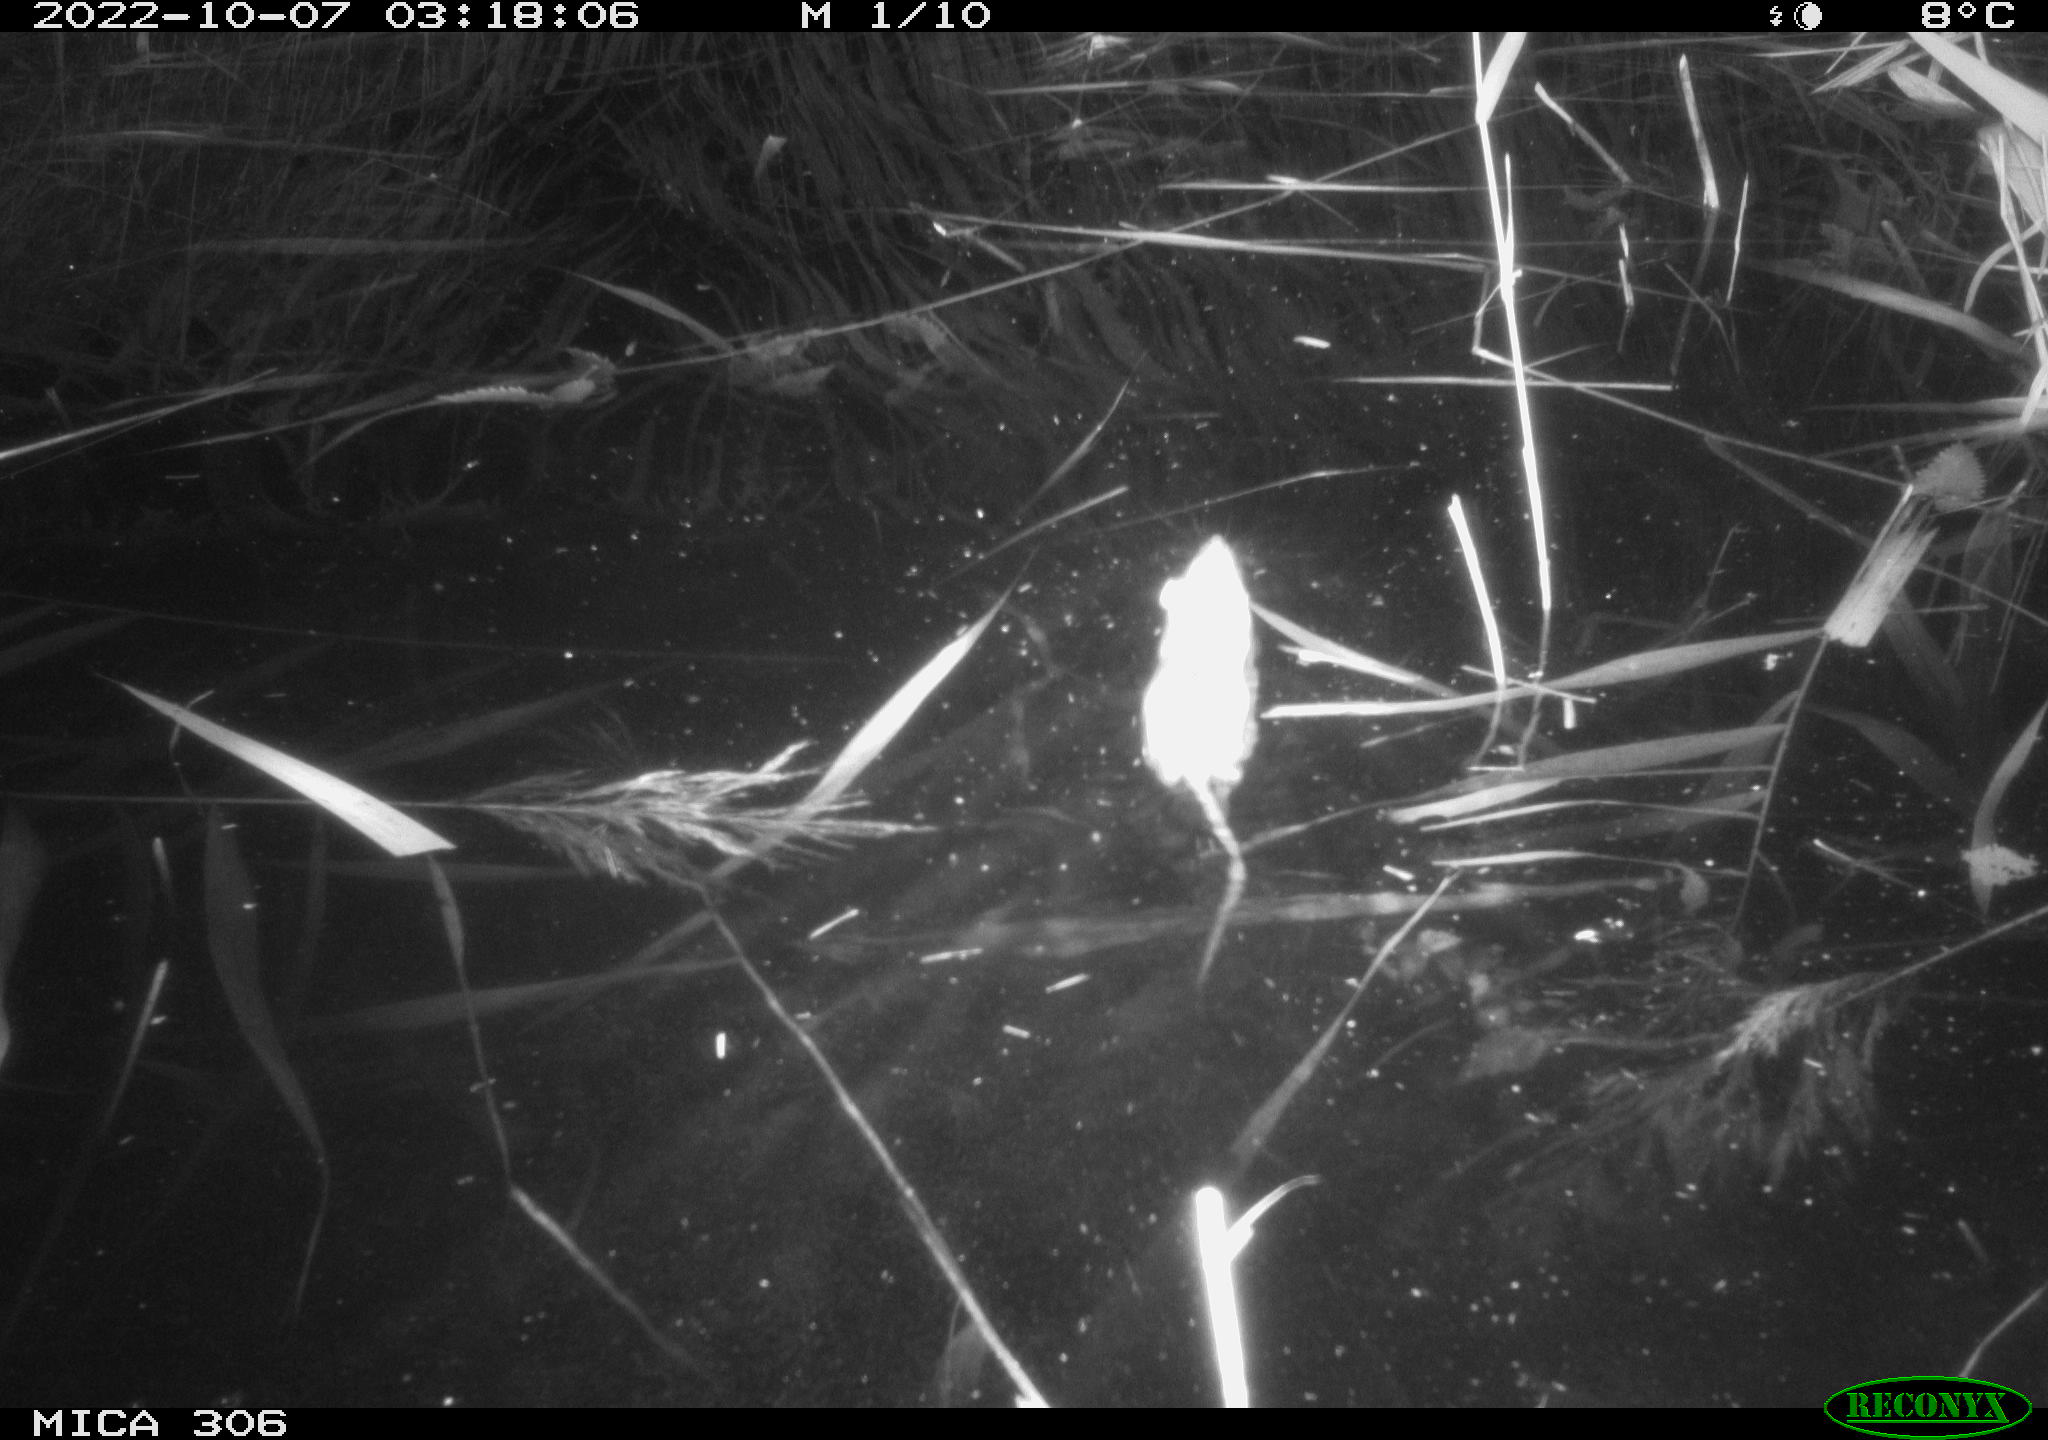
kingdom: Animalia
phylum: Chordata
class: Mammalia
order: Rodentia
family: Muridae
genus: Rattus
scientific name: Rattus norvegicus
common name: Brown rat
